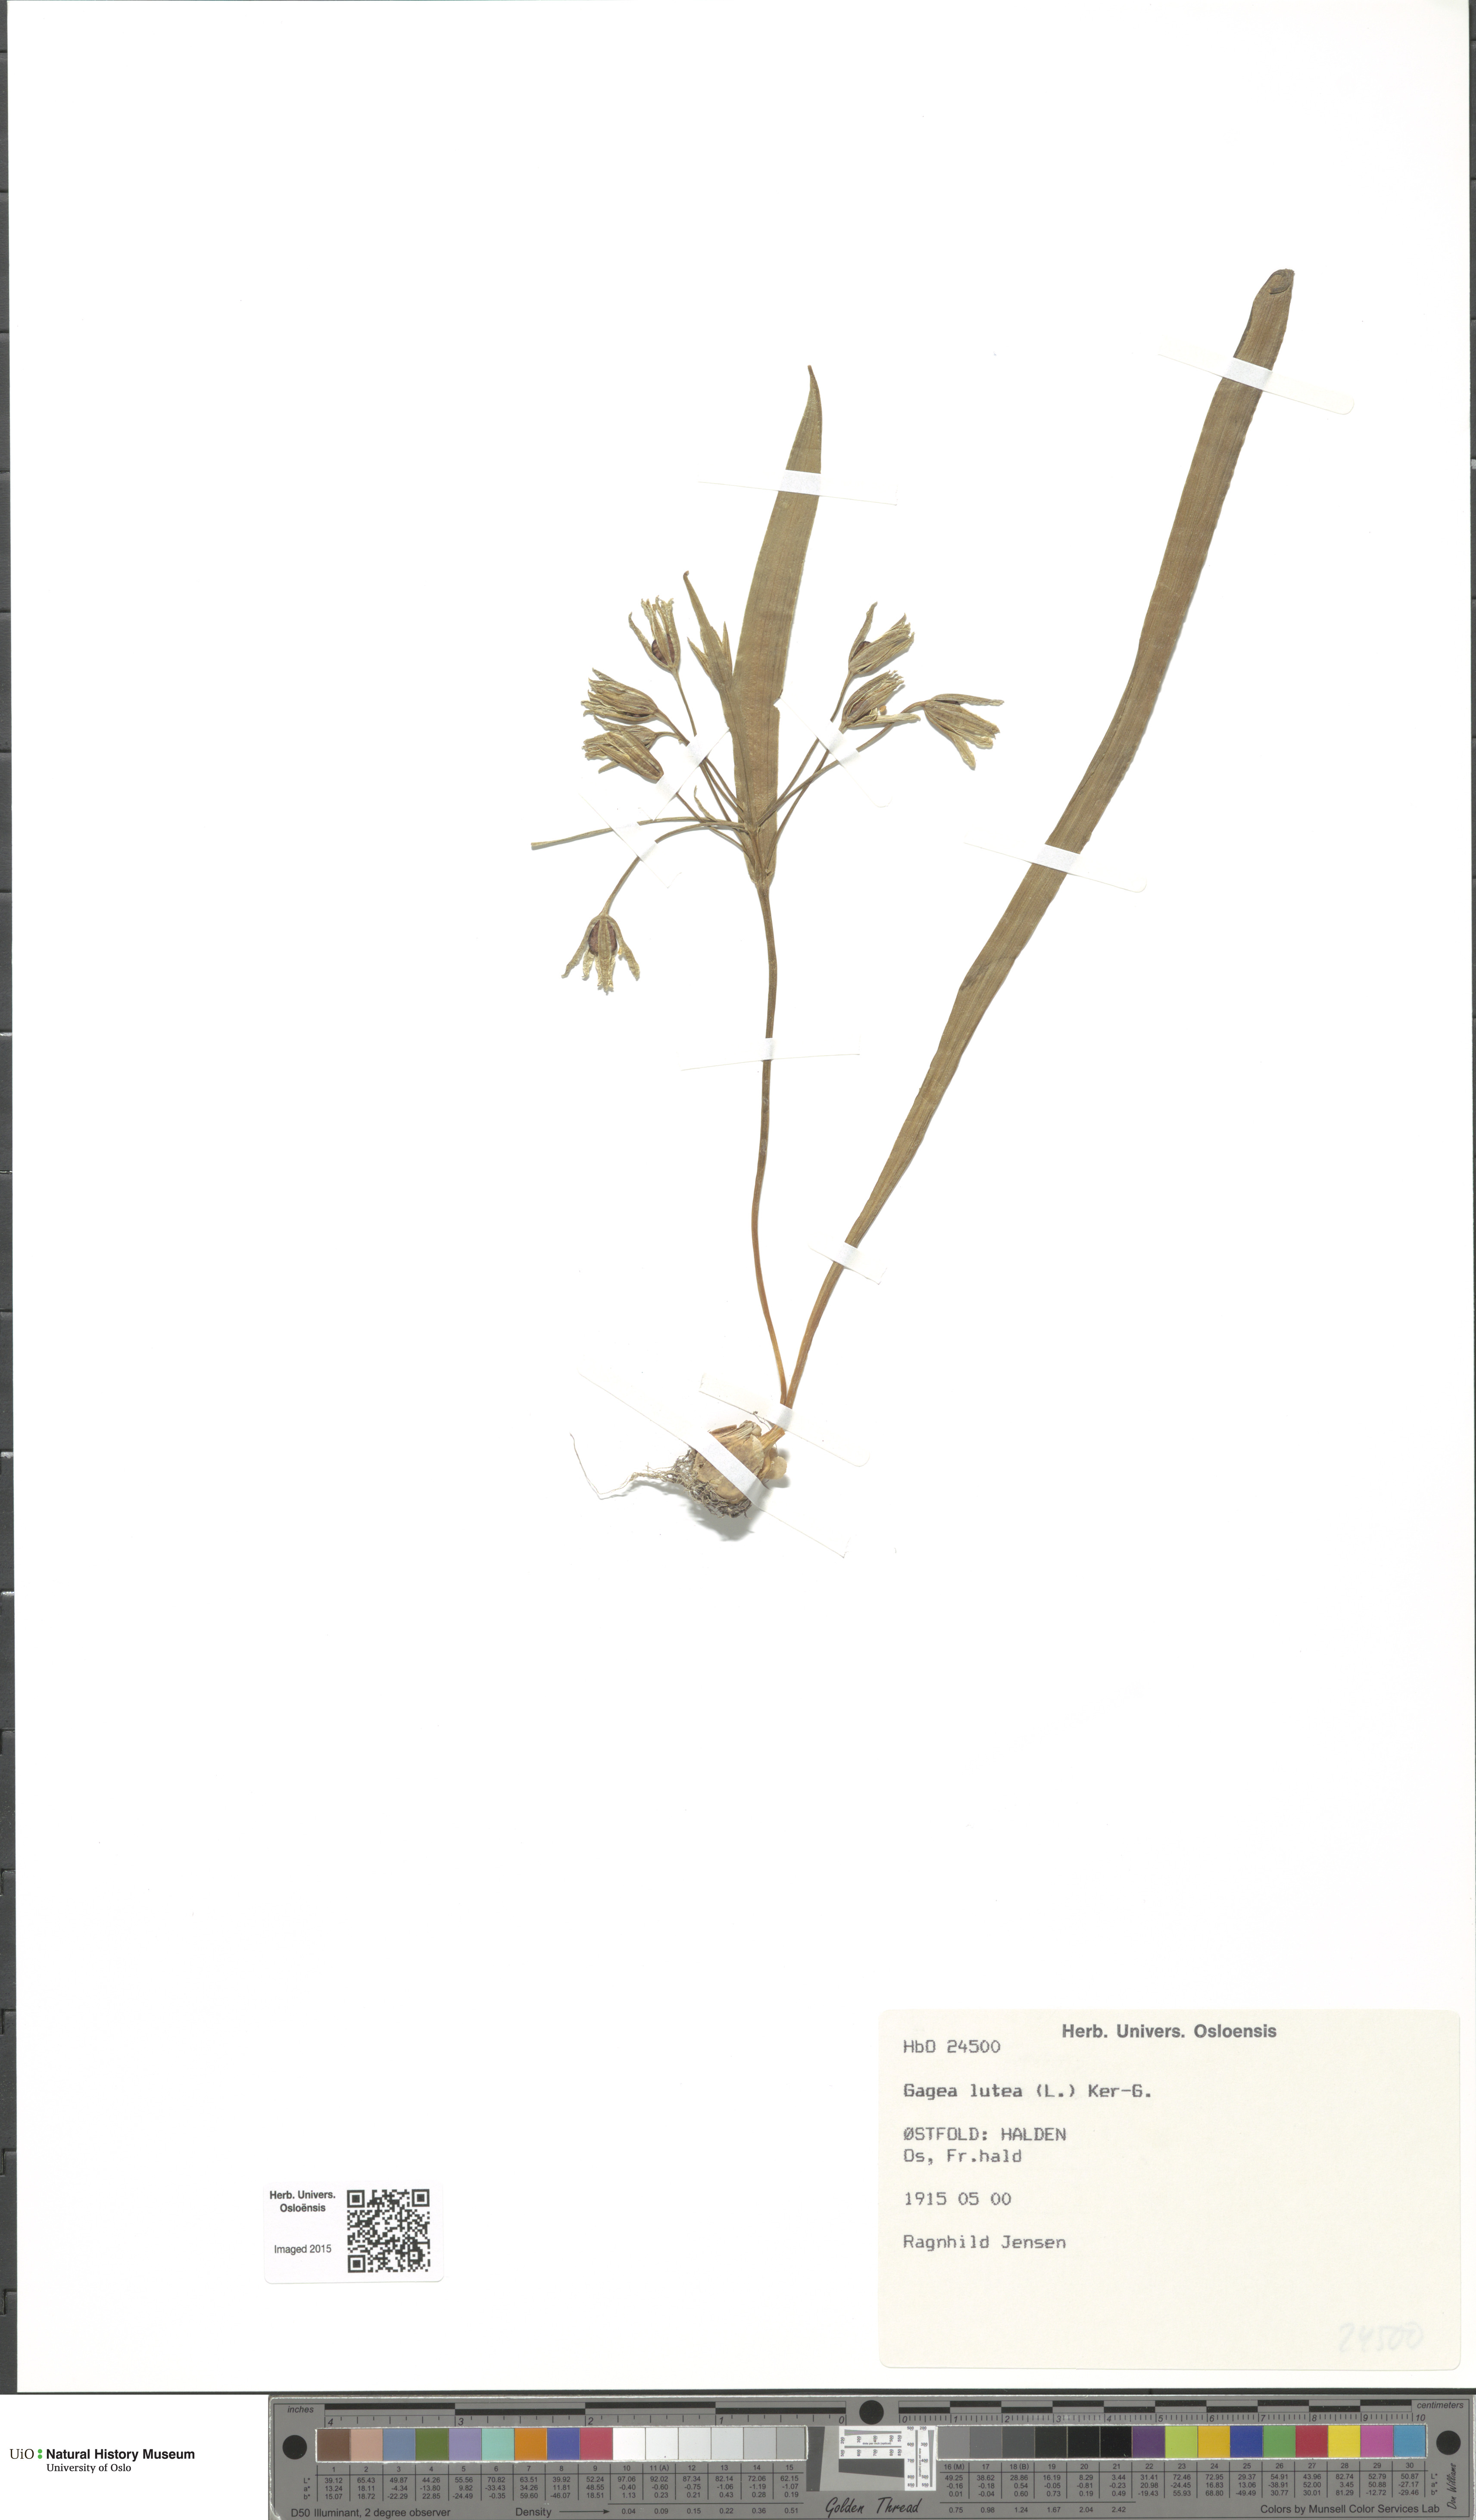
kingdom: Plantae
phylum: Tracheophyta
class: Liliopsida
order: Liliales
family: Liliaceae
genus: Gagea
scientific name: Gagea lutea
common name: Yellow star-of-bethlehem
